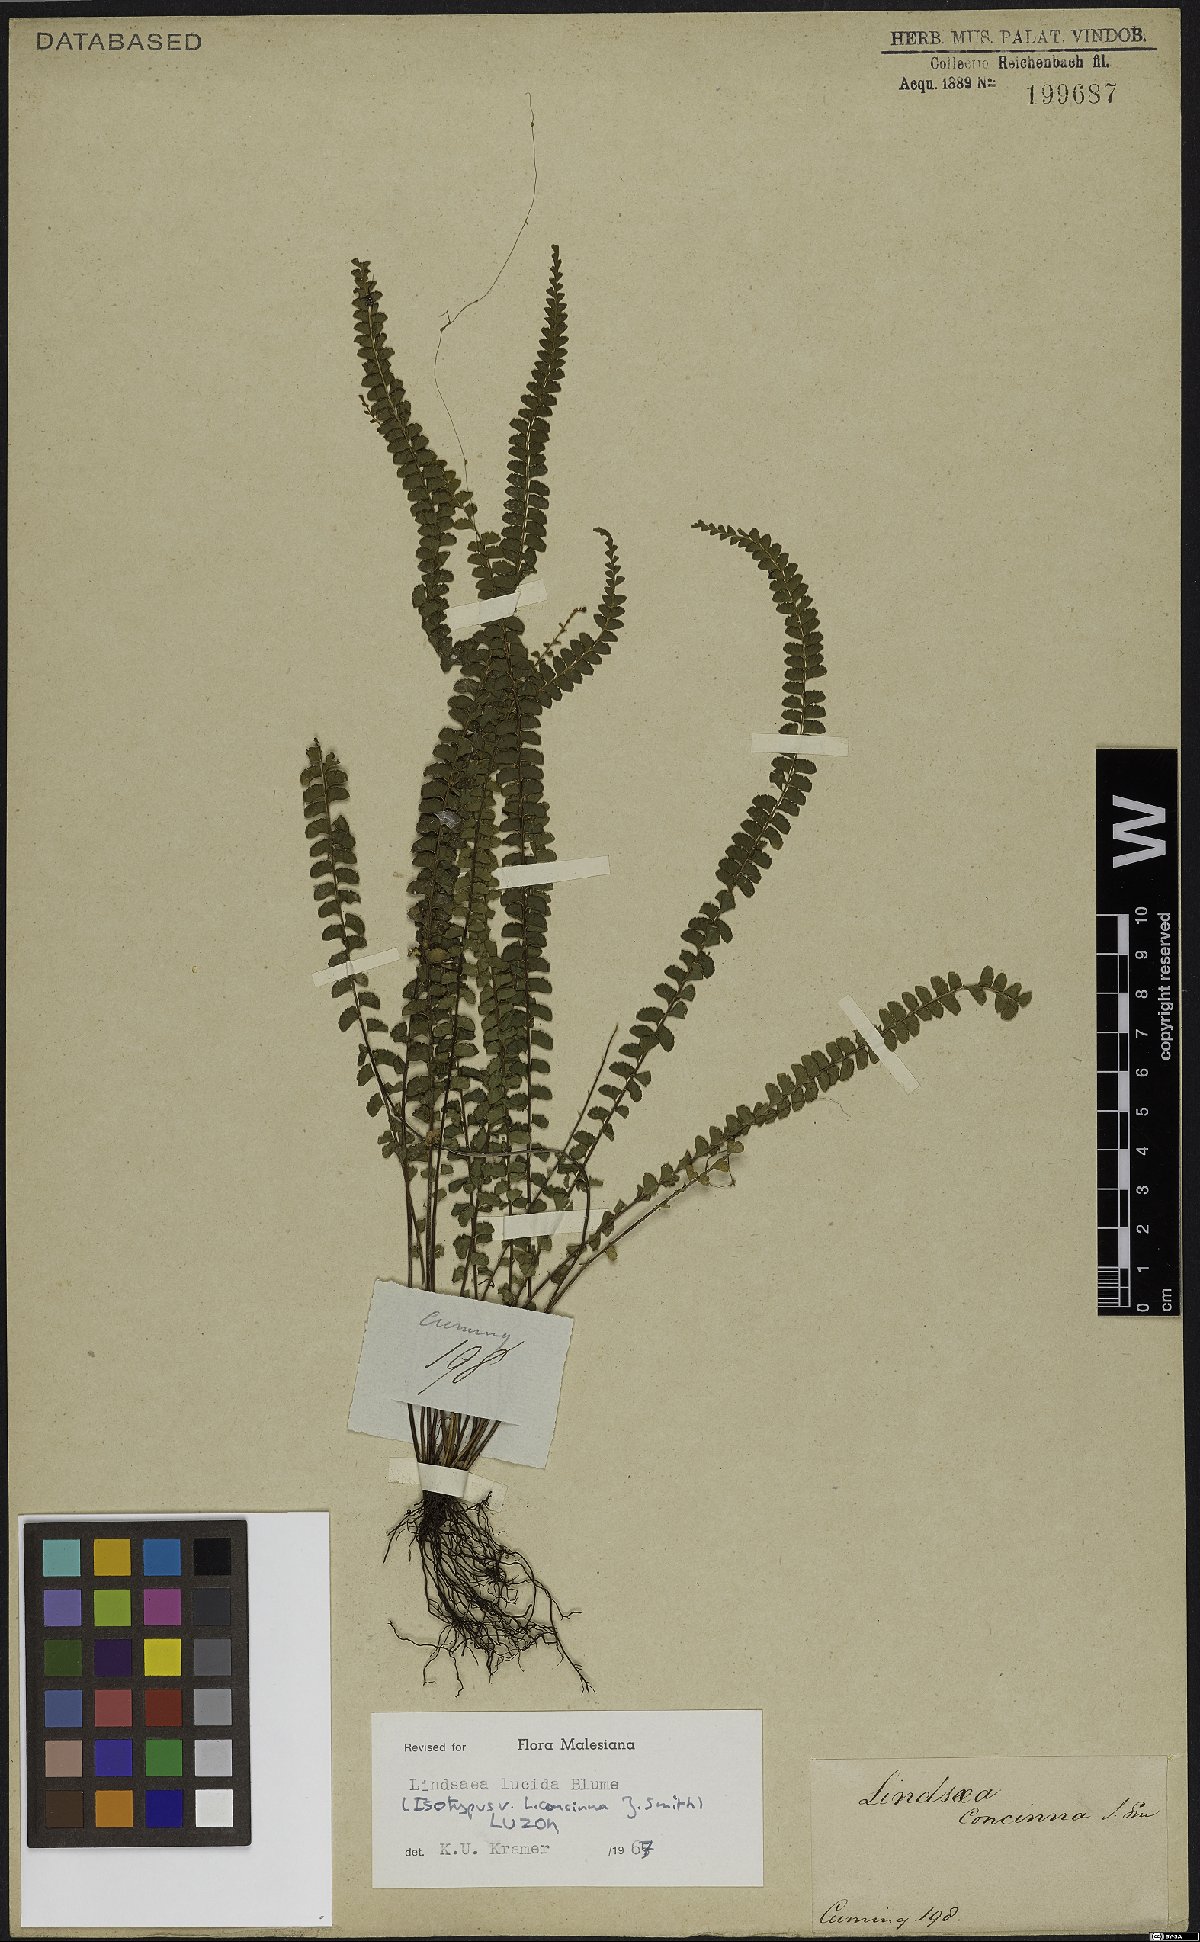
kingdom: Plantae
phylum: Tracheophyta
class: Polypodiopsida
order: Polypodiales
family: Lindsaeaceae
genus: Lindsaea
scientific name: Lindsaea lucida
